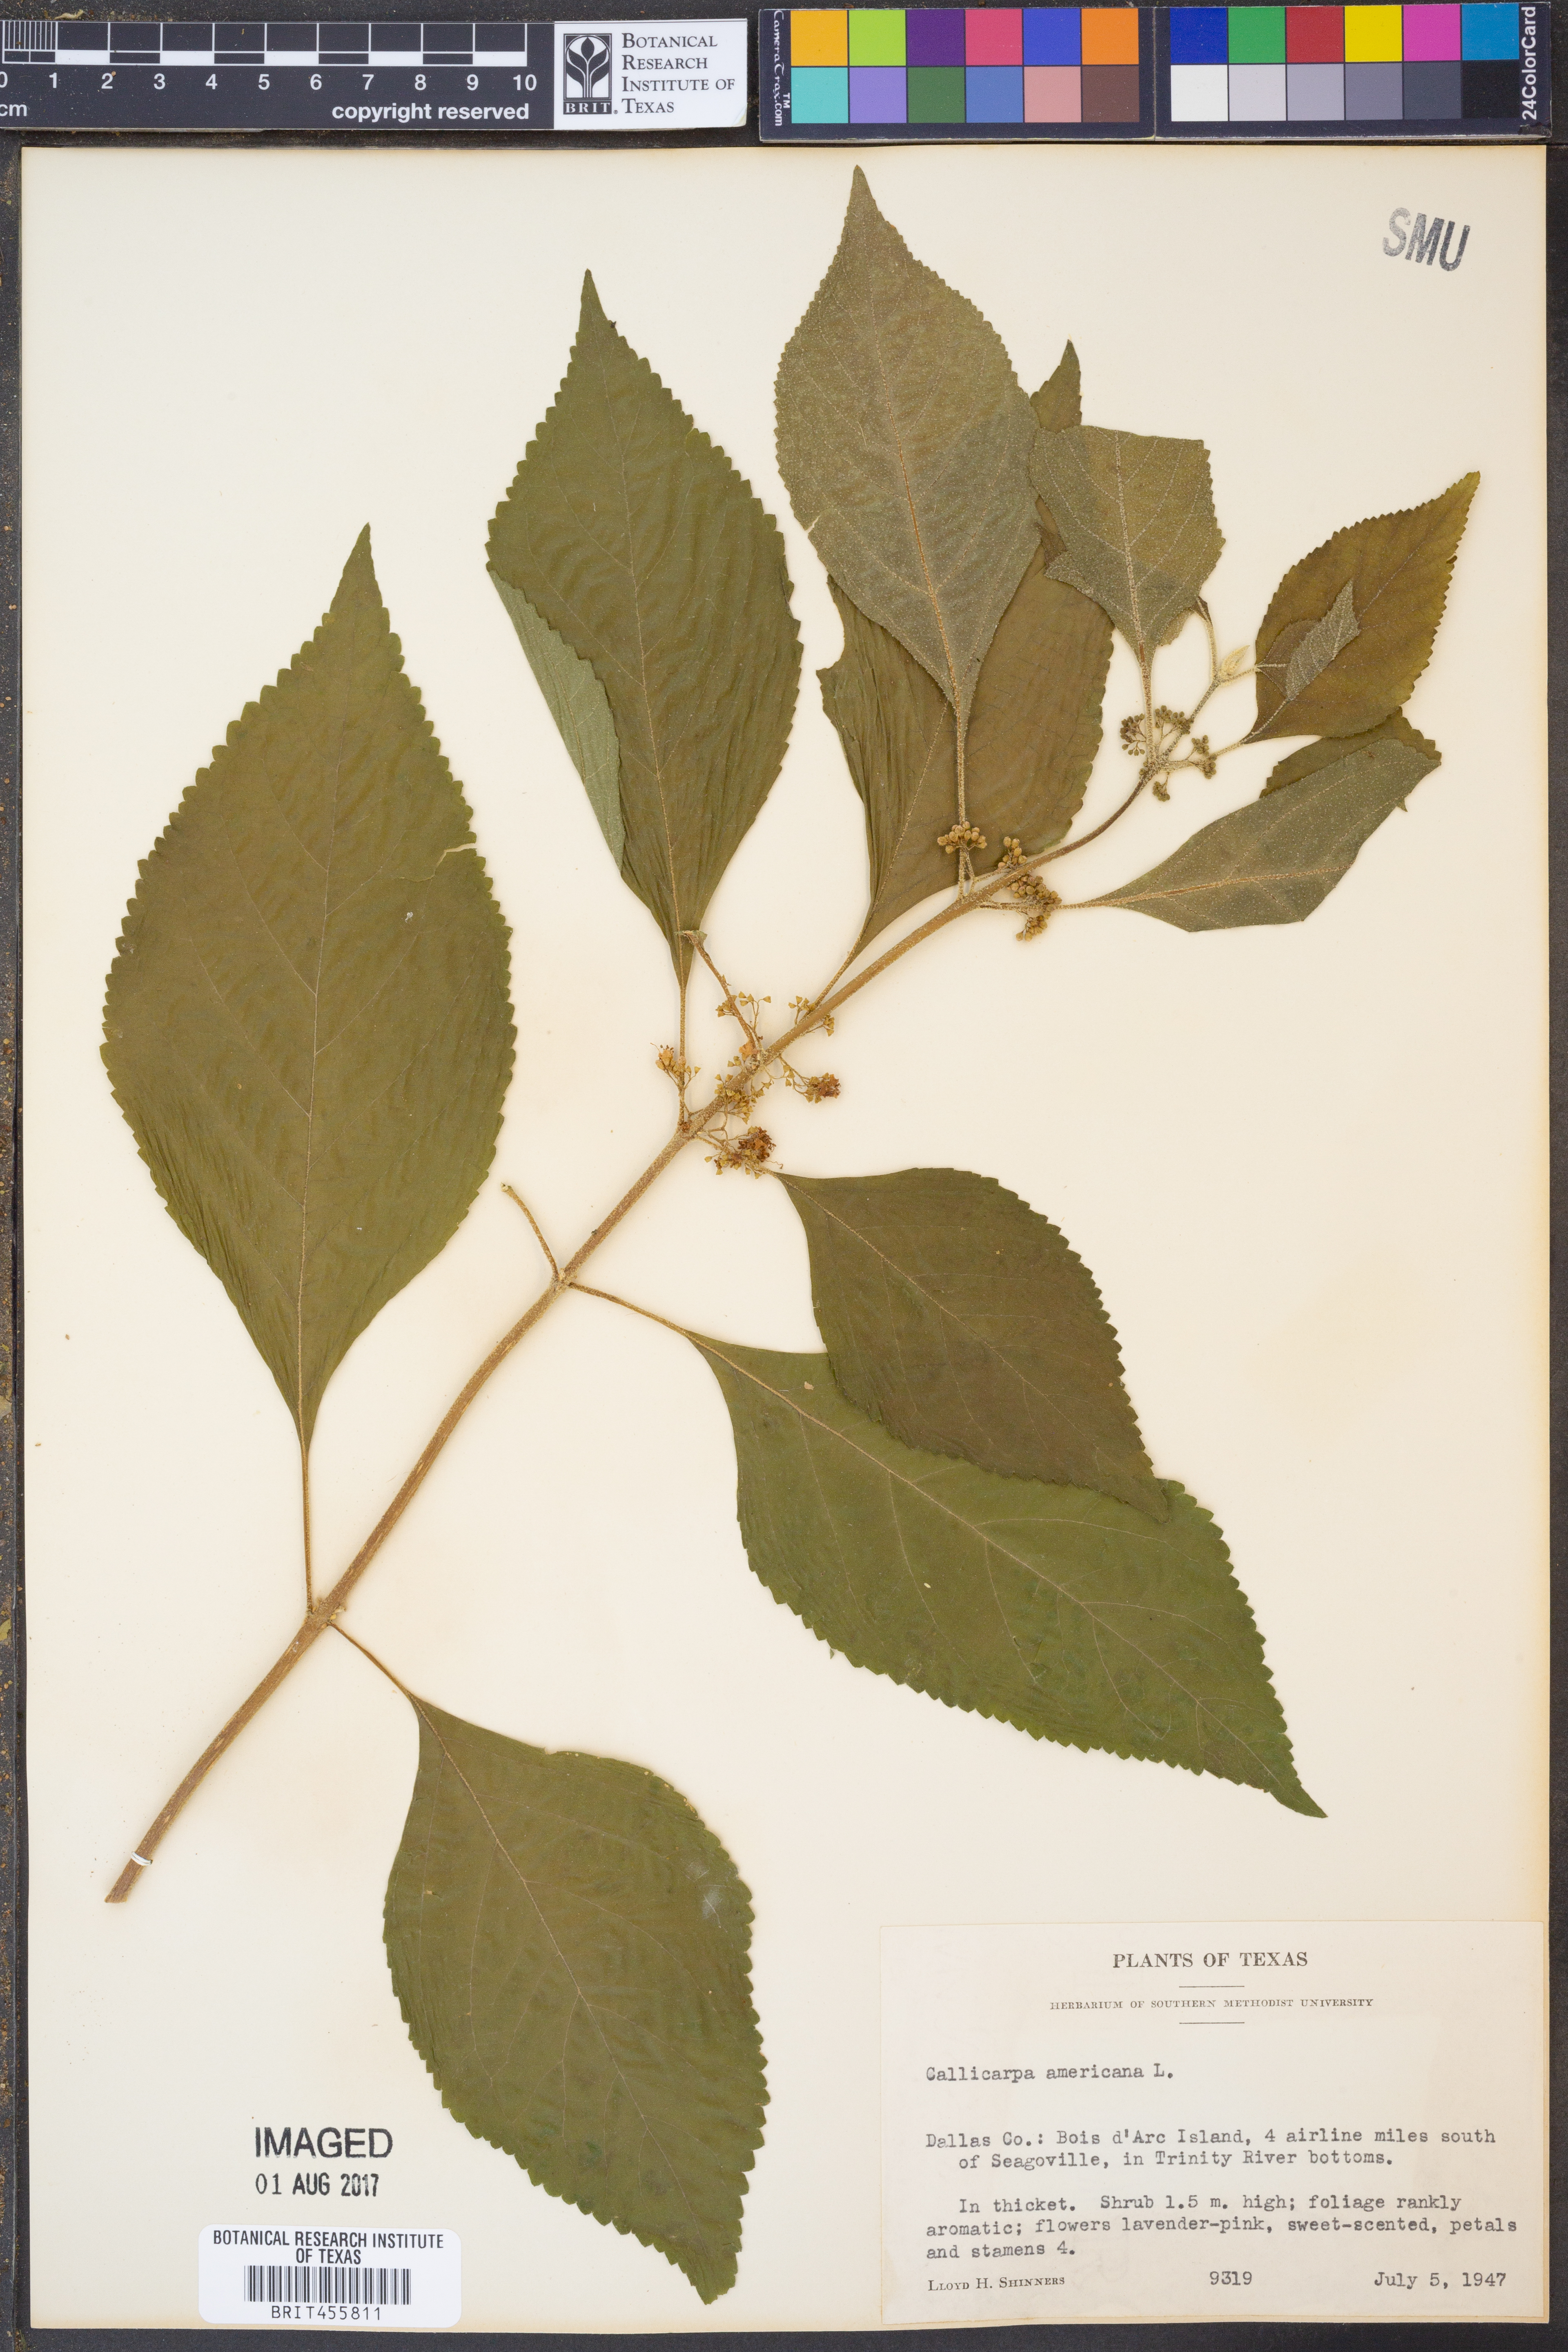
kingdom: Plantae
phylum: Tracheophyta
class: Magnoliopsida
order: Lamiales
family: Lamiaceae
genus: Callicarpa
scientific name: Callicarpa americana
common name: American beautyberry
